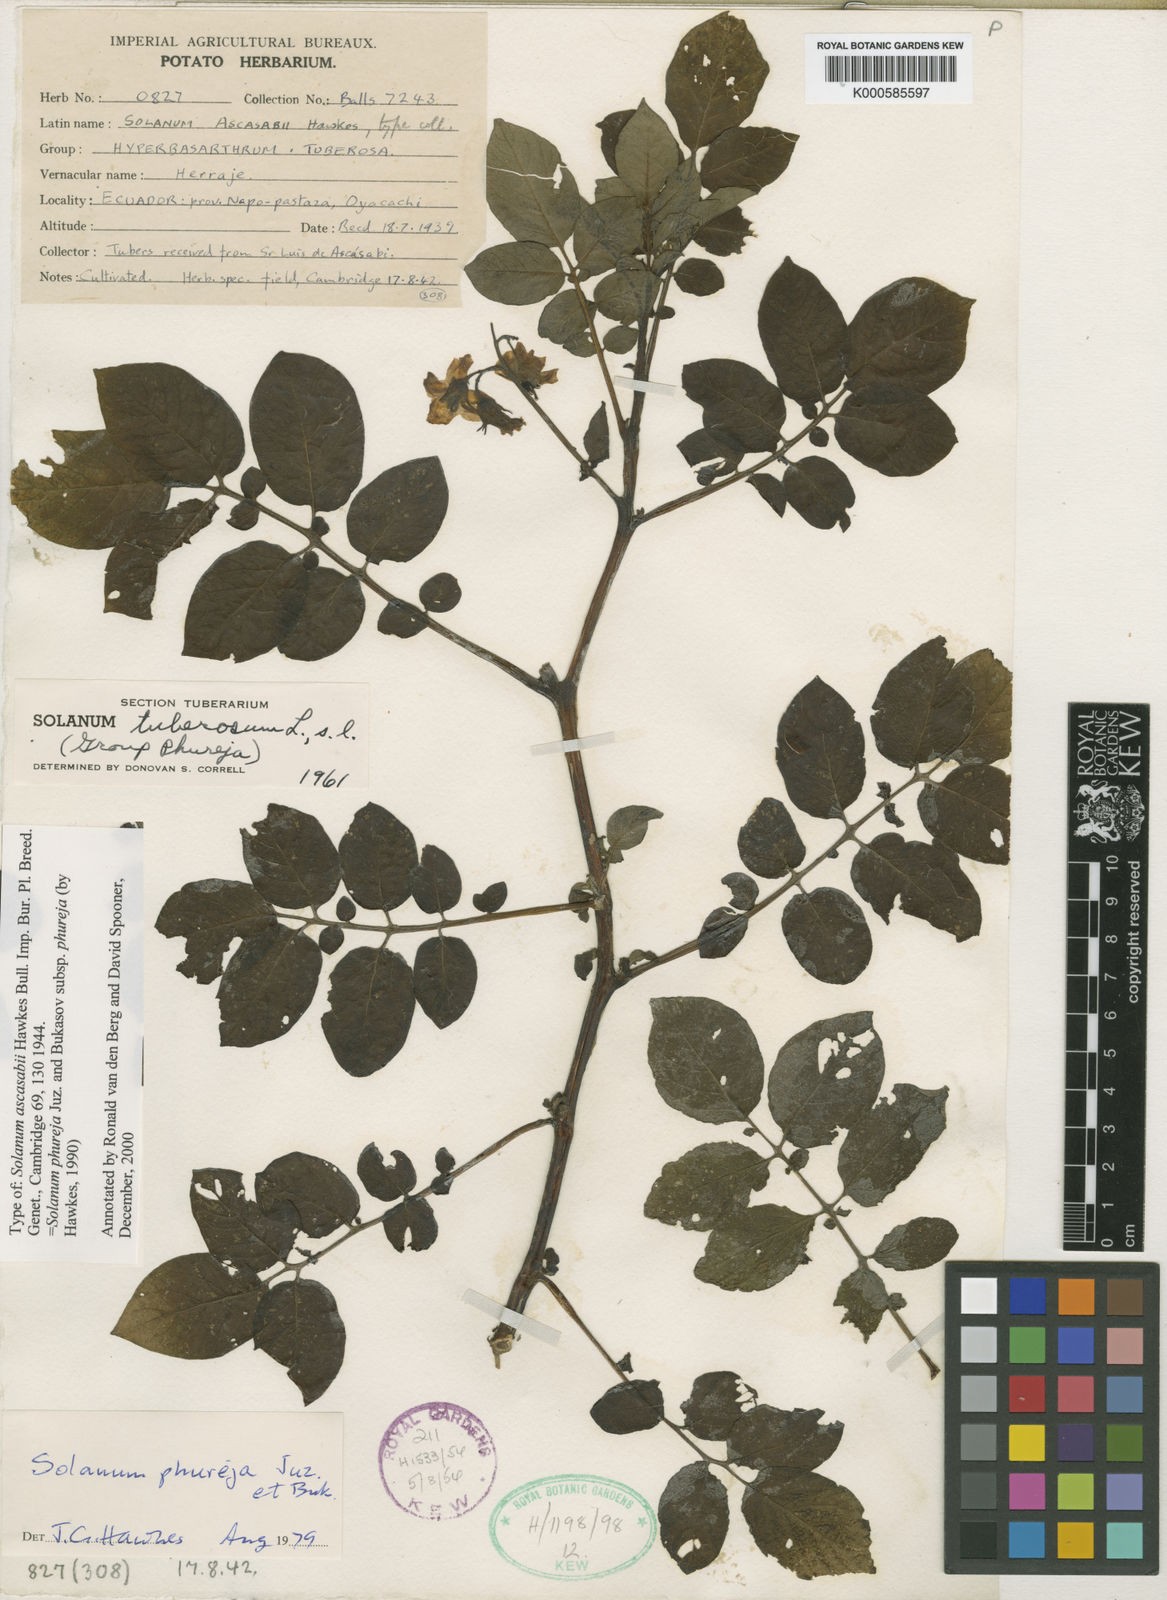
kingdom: Plantae
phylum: Tracheophyta
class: Magnoliopsida
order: Solanales
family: Solanaceae
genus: Solanum
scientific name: Solanum tuberosum
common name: Potato
